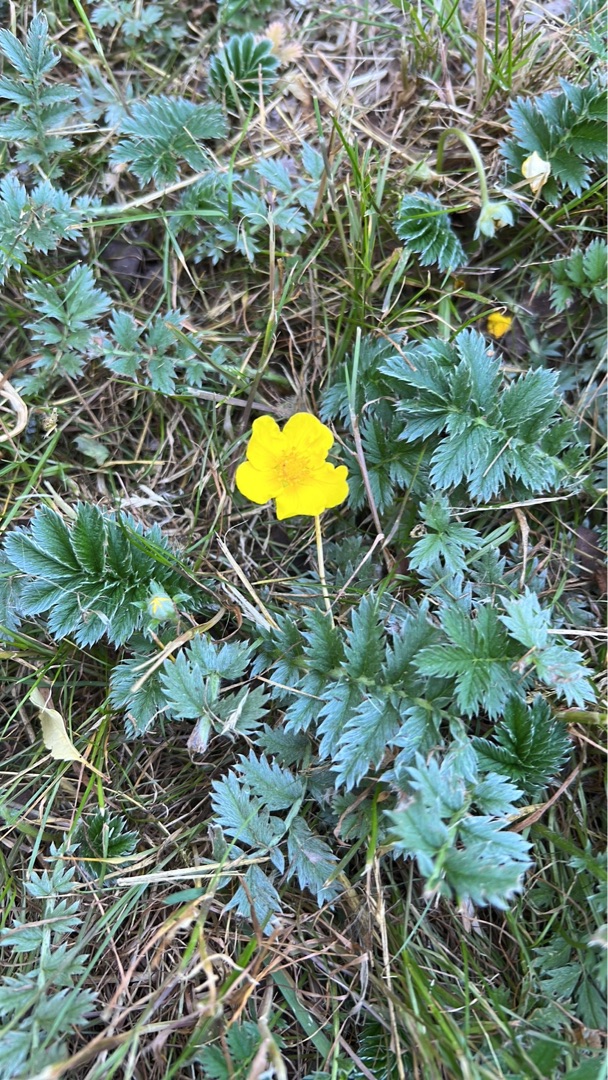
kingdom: Plantae
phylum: Tracheophyta
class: Magnoliopsida
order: Rosales
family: Rosaceae
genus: Argentina
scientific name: Argentina anserina
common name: Gåsepotentil
